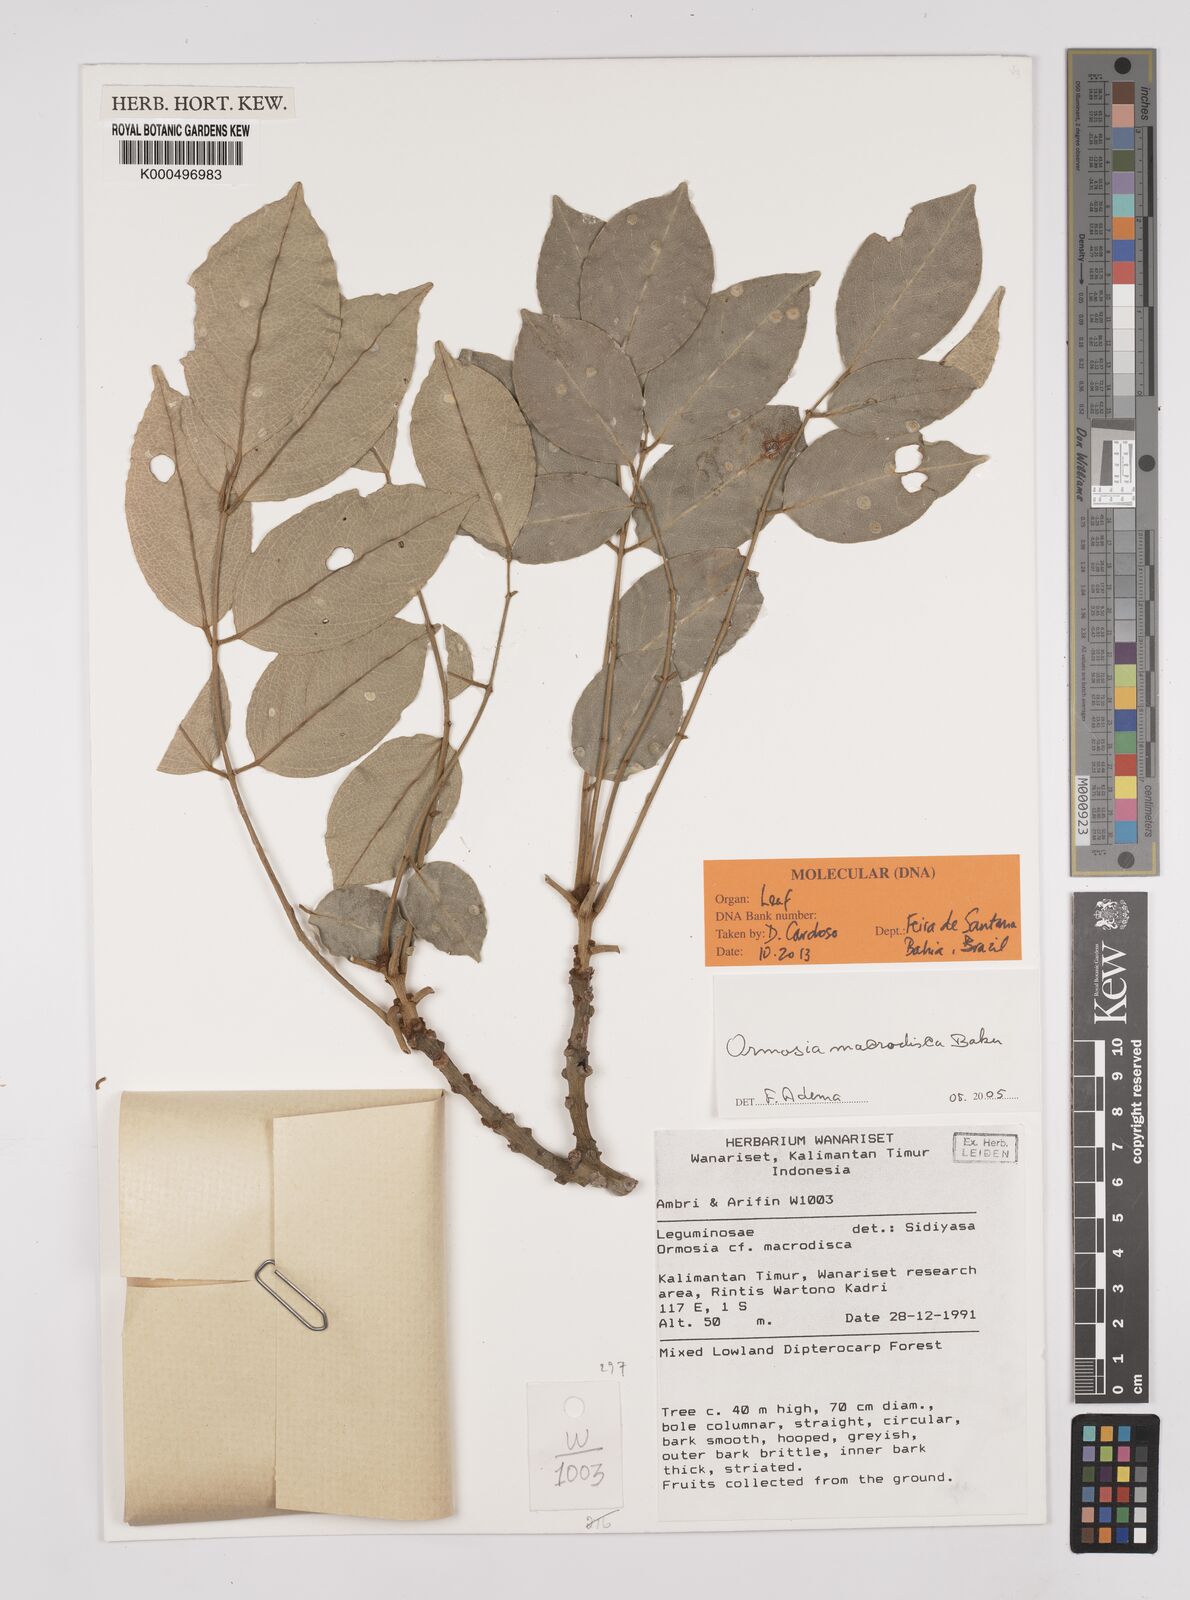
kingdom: Plantae
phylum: Tracheophyta
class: Magnoliopsida
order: Fabales
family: Fabaceae
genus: Ormosia
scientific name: Ormosia macrodisca
